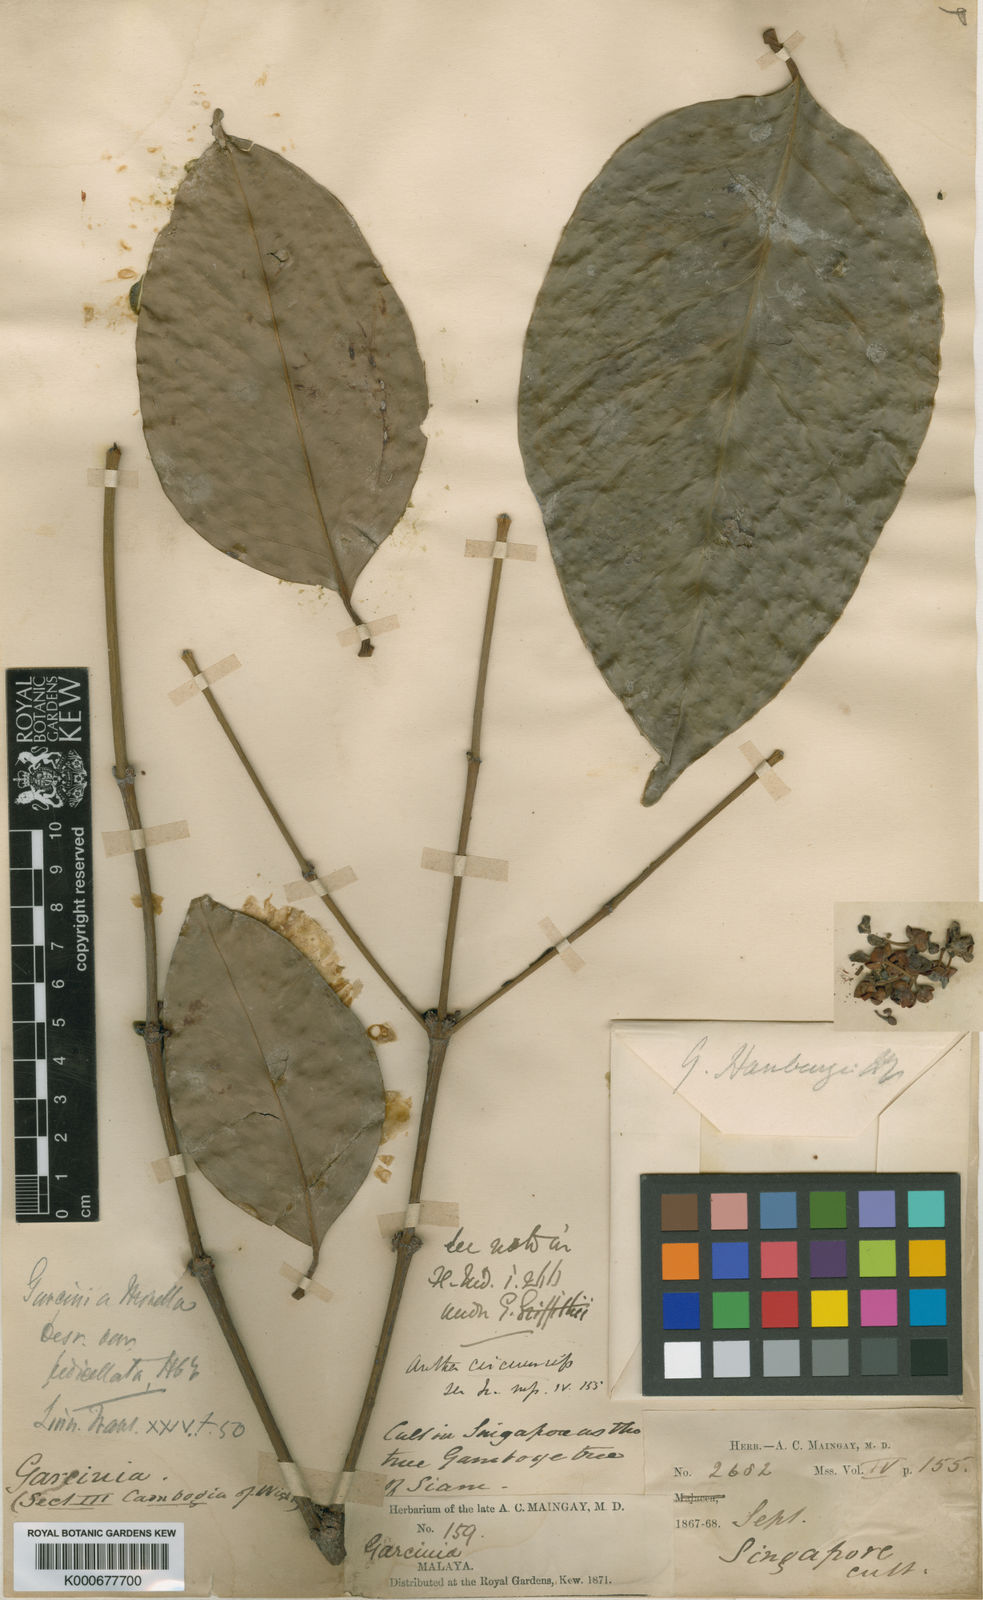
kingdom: Plantae
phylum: Tracheophyta
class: Magnoliopsida
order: Malpighiales
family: Clusiaceae
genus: Garcinia
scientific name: Garcinia hanburyi
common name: Siam gamboge
